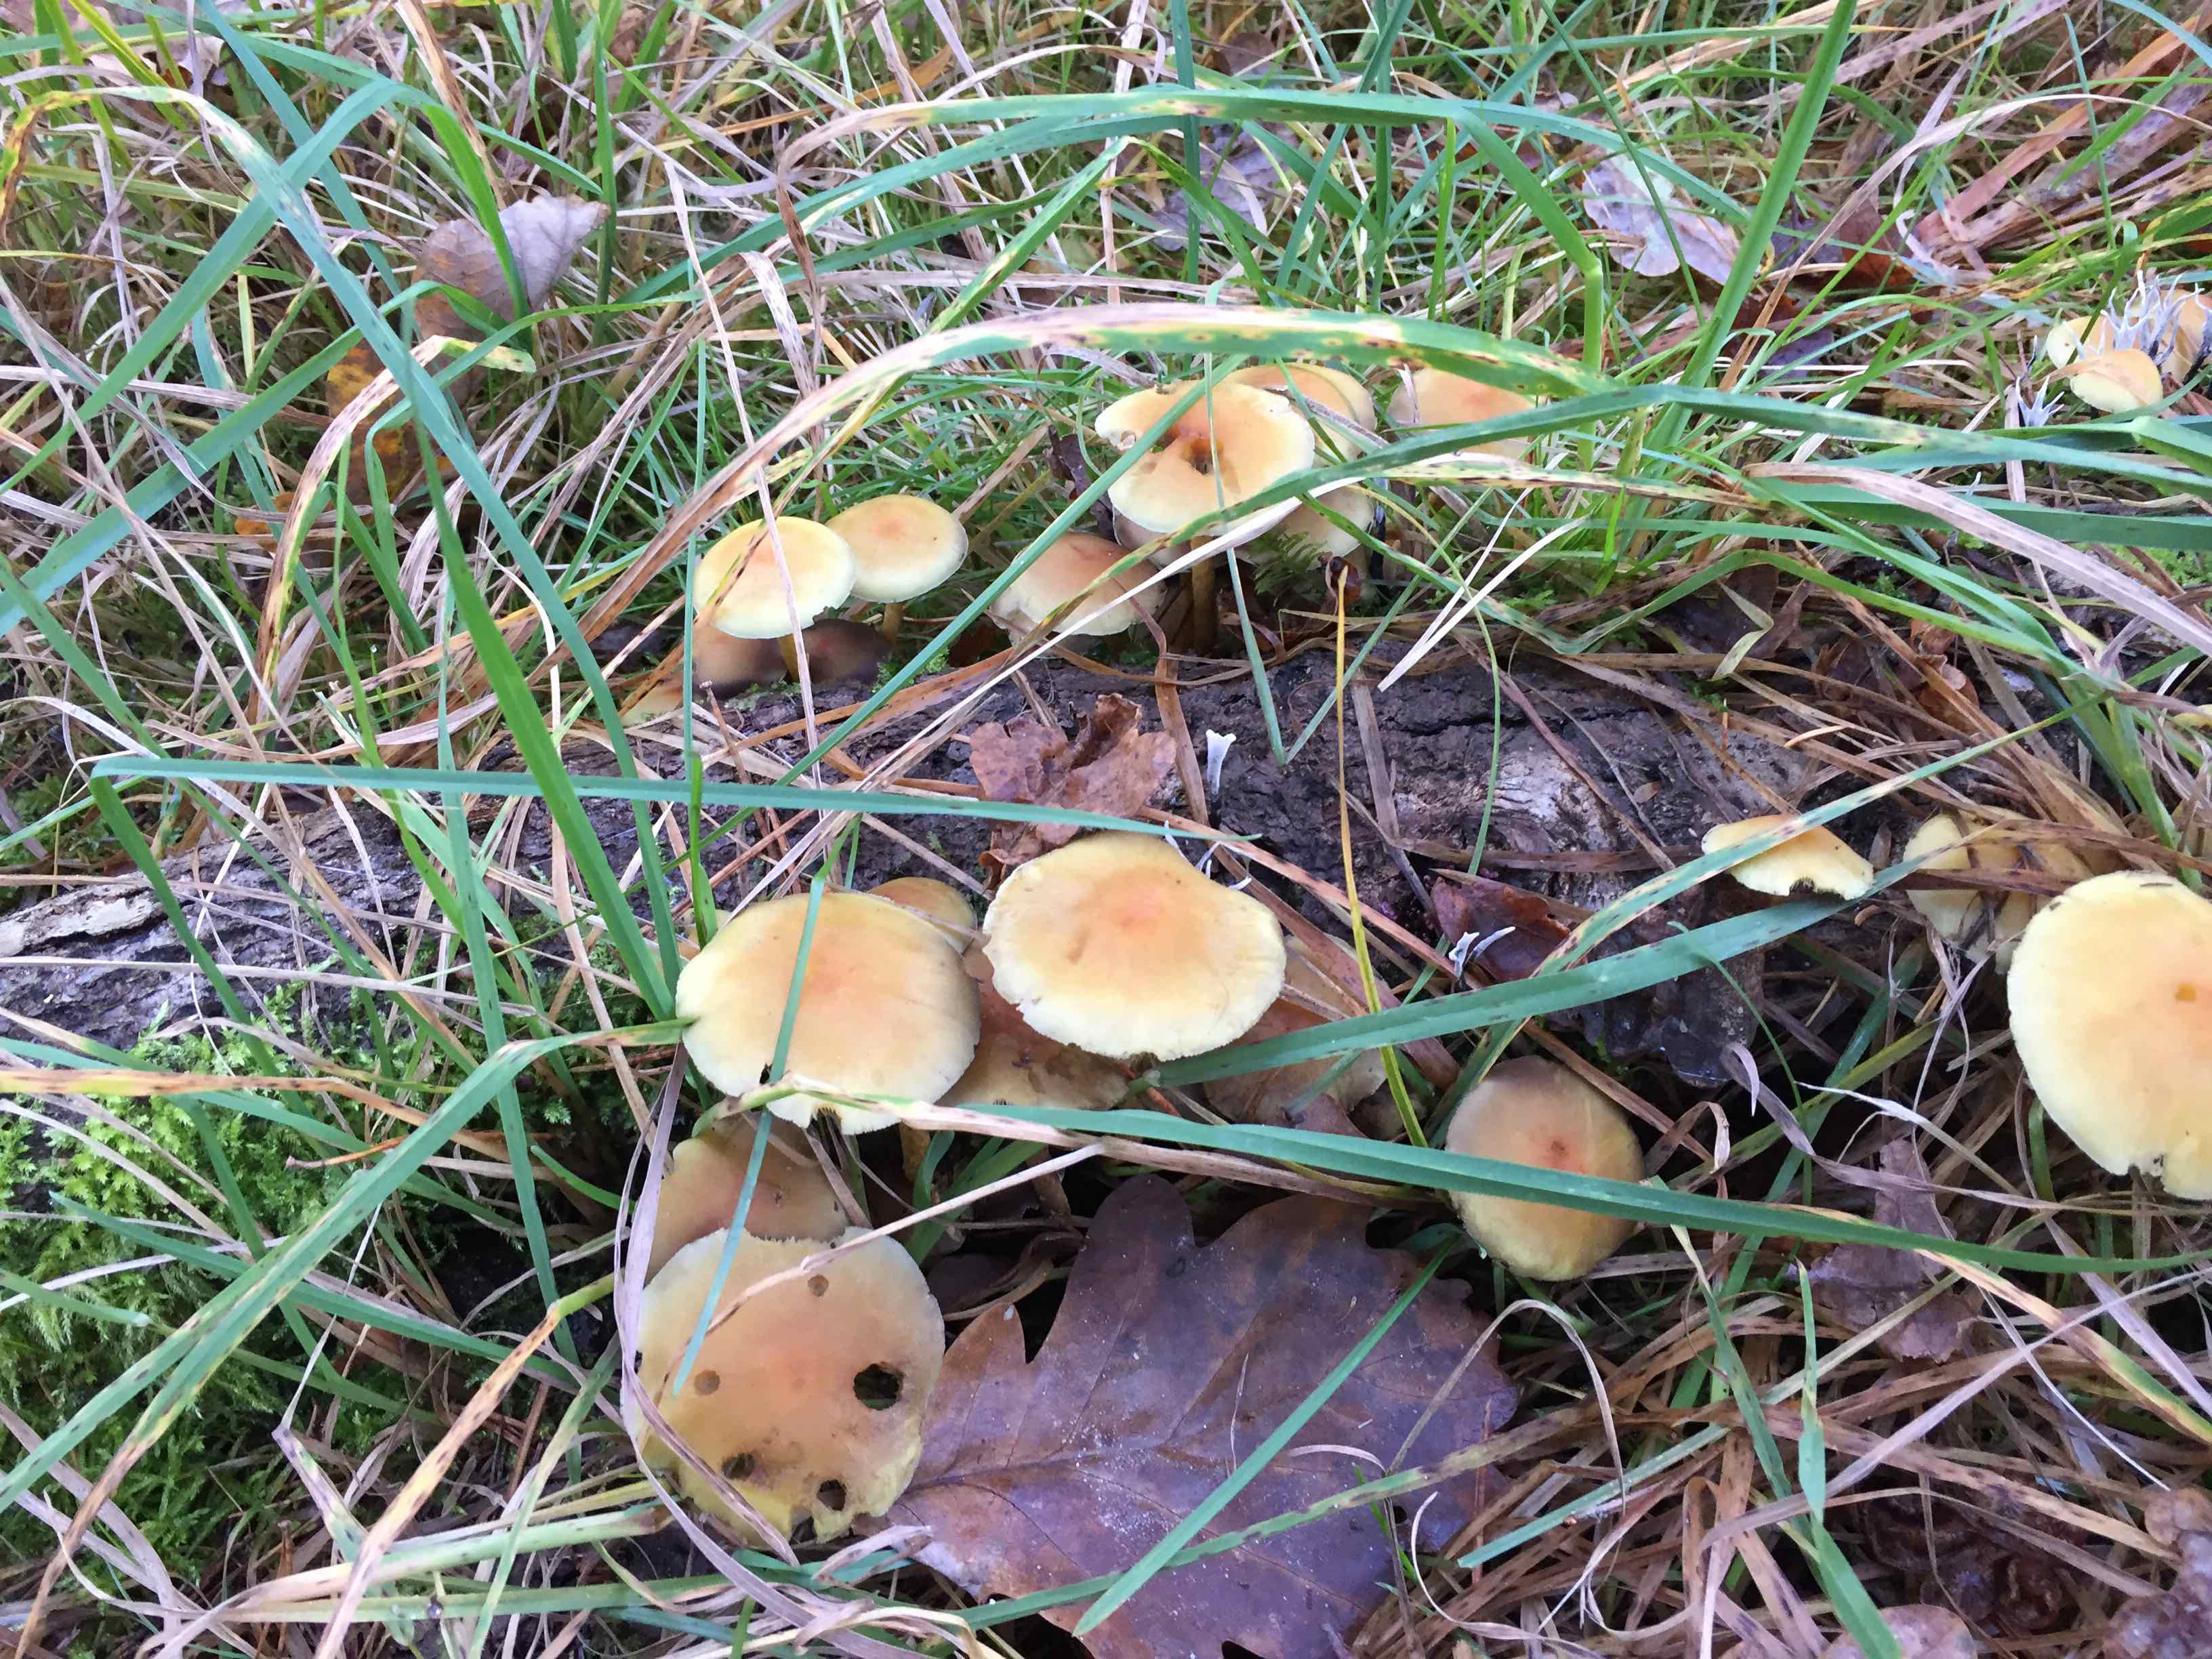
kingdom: Fungi
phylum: Basidiomycota
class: Agaricomycetes
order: Agaricales
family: Strophariaceae
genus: Hypholoma
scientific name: Hypholoma capnoides
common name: gran-svovlhat
